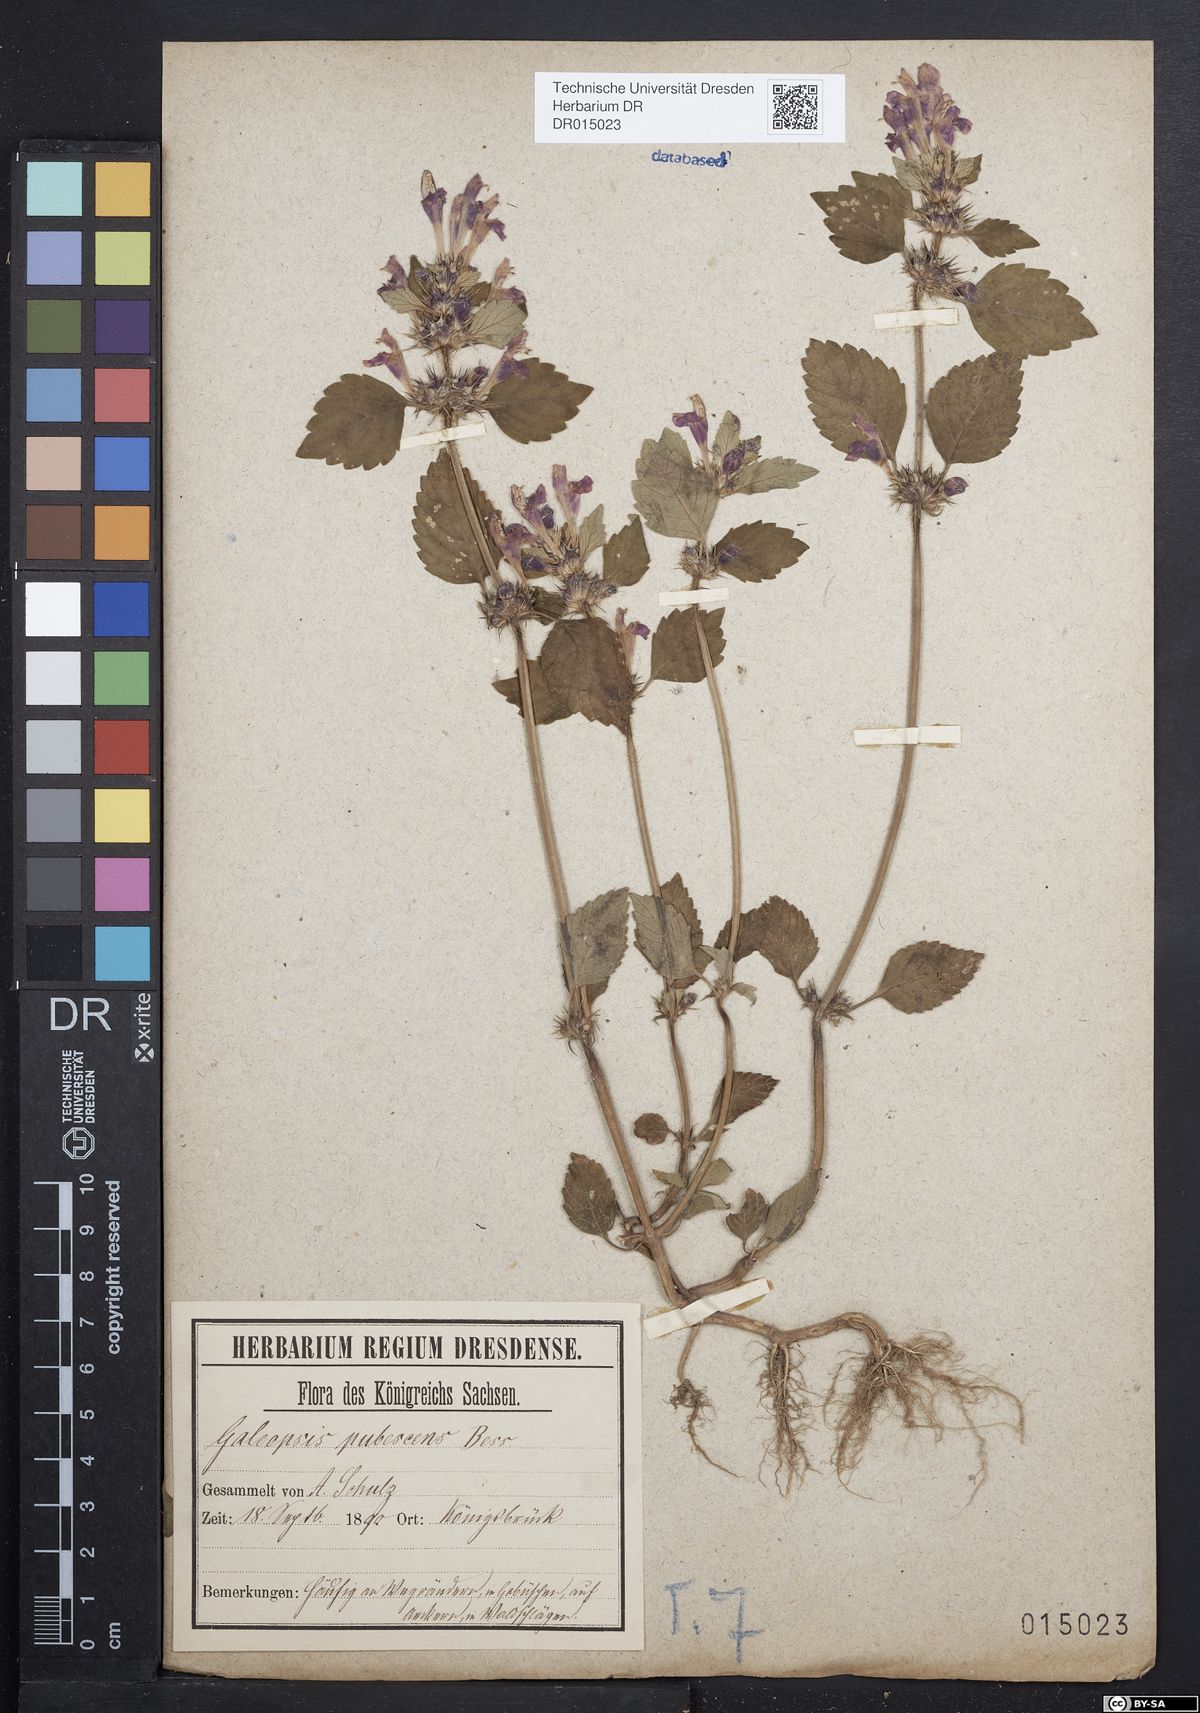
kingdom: Plantae
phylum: Tracheophyta
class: Magnoliopsida
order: Lamiales
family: Lamiaceae
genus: Galeopsis
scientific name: Galeopsis pubescens
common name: Downy hemp-nettle
